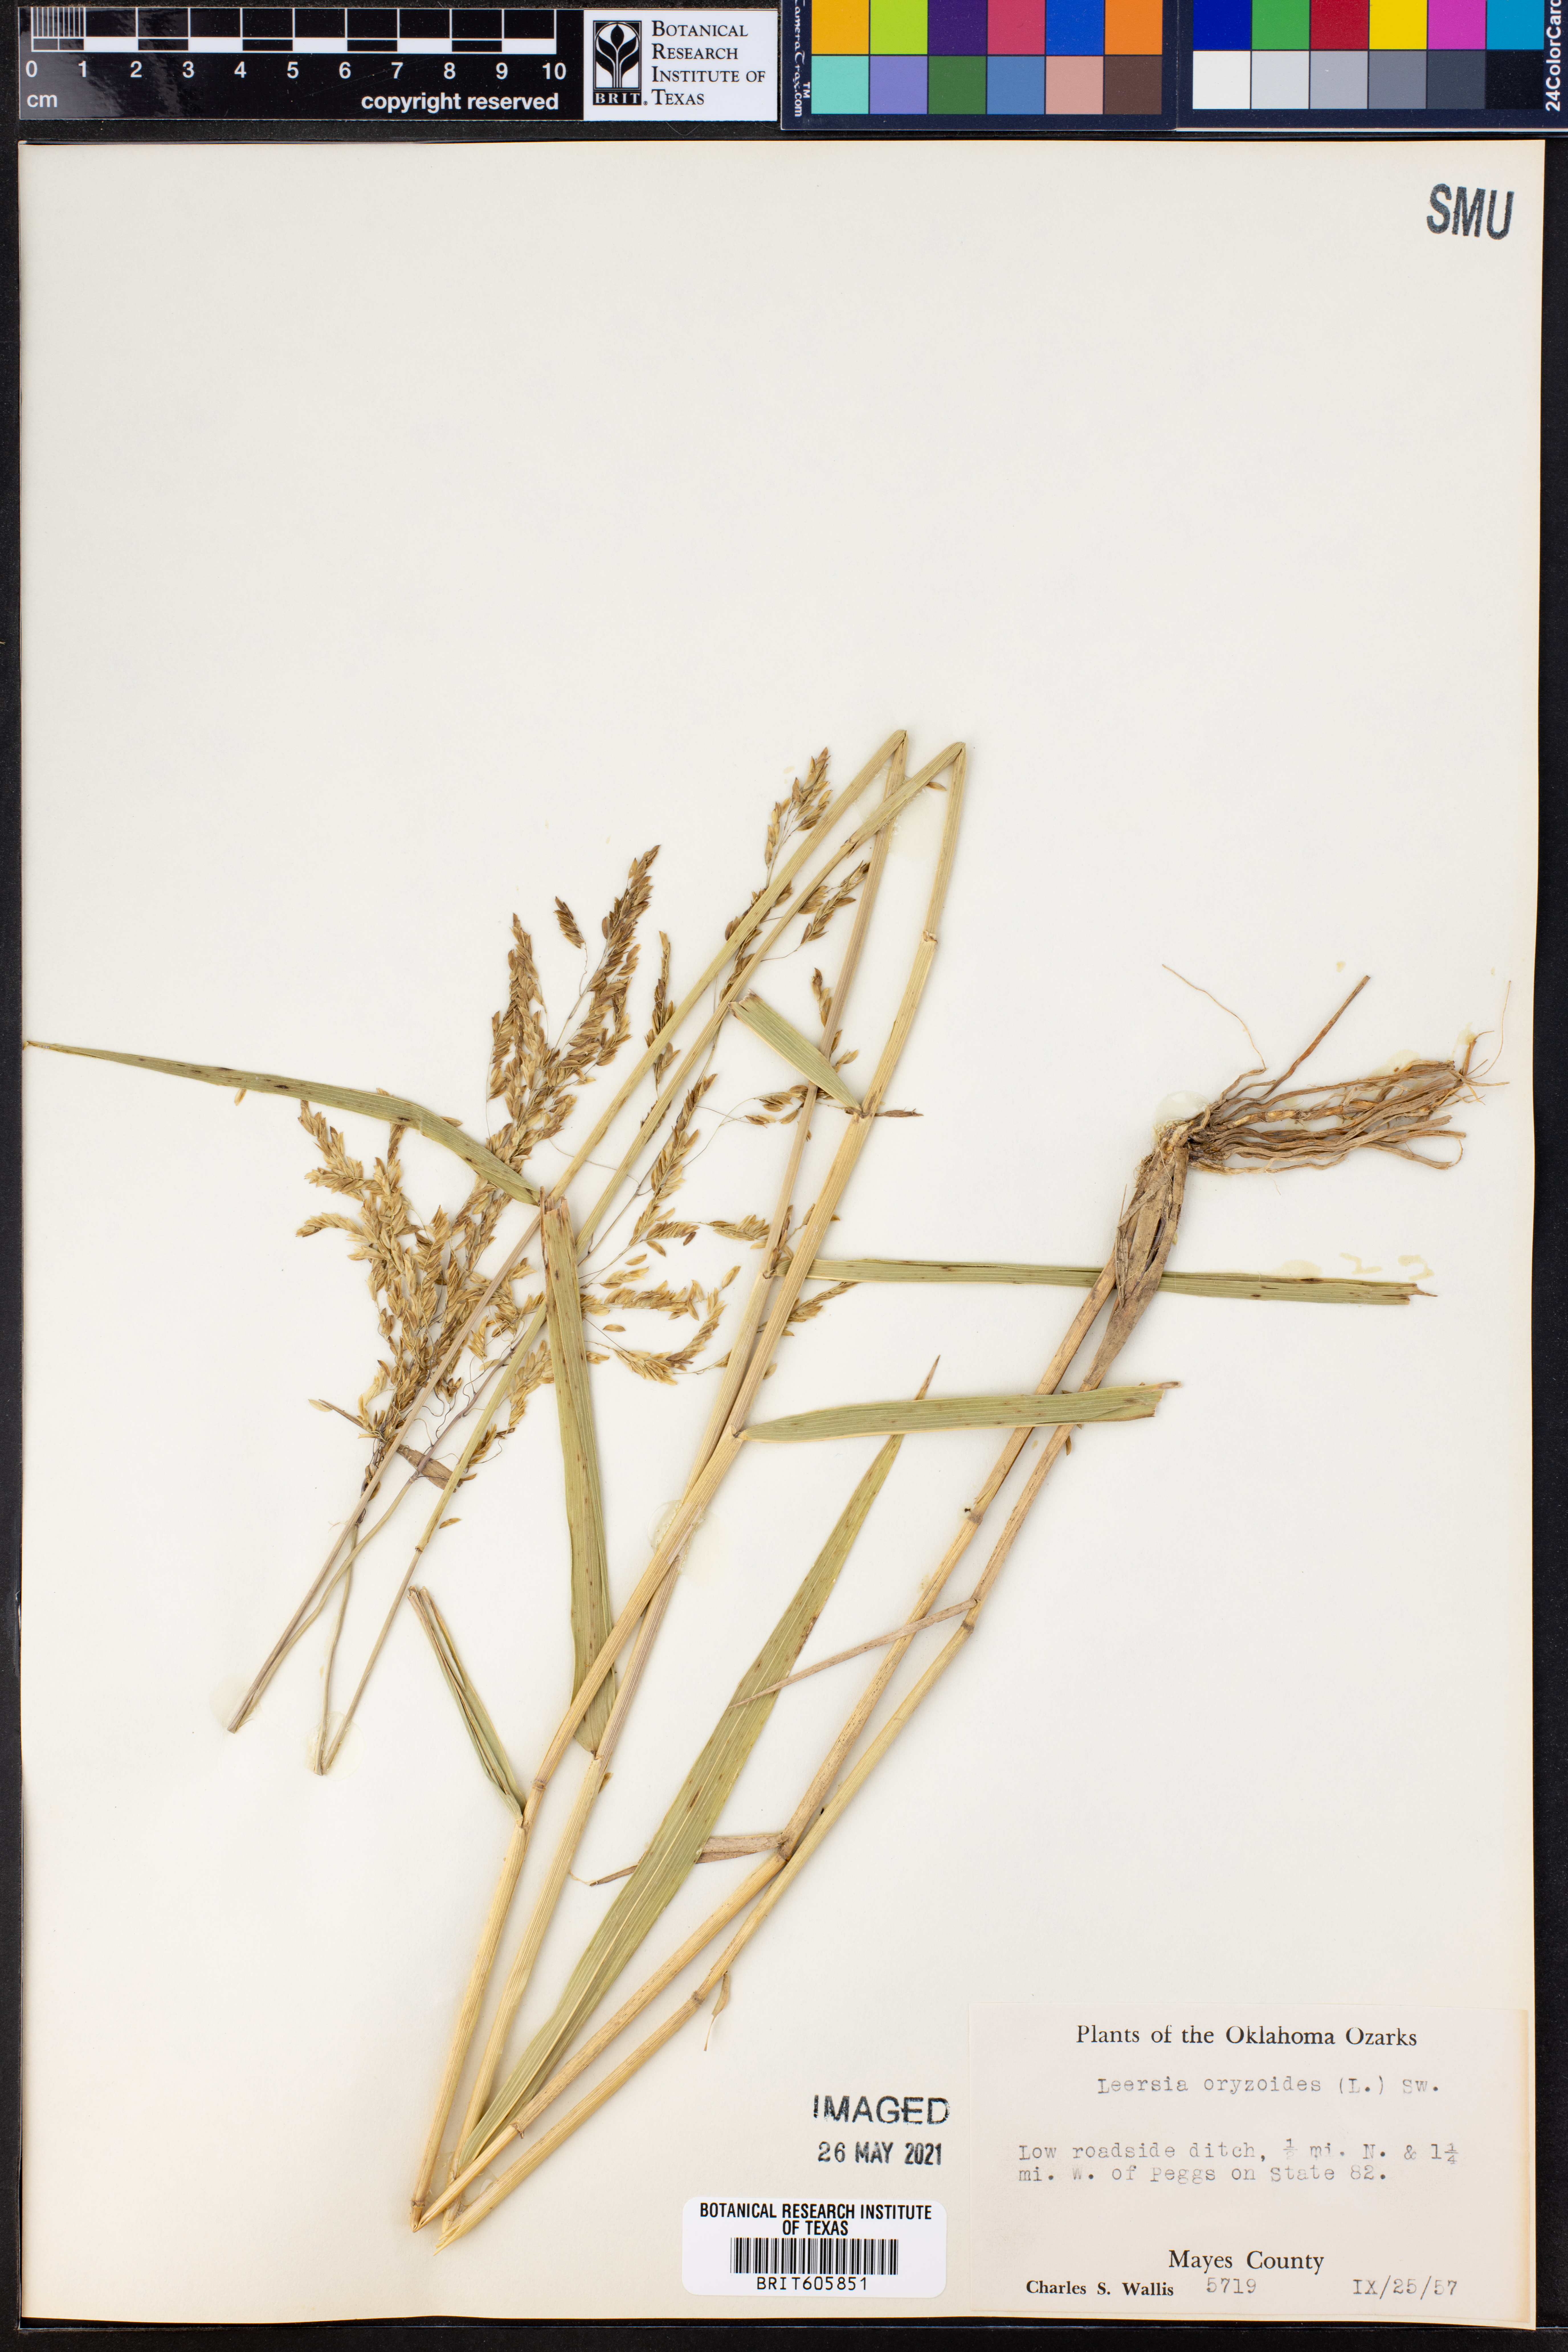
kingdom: Plantae
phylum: Tracheophyta
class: Liliopsida
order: Poales
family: Poaceae
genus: Leersia
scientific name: Leersia oryzoides
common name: Cut-grass
